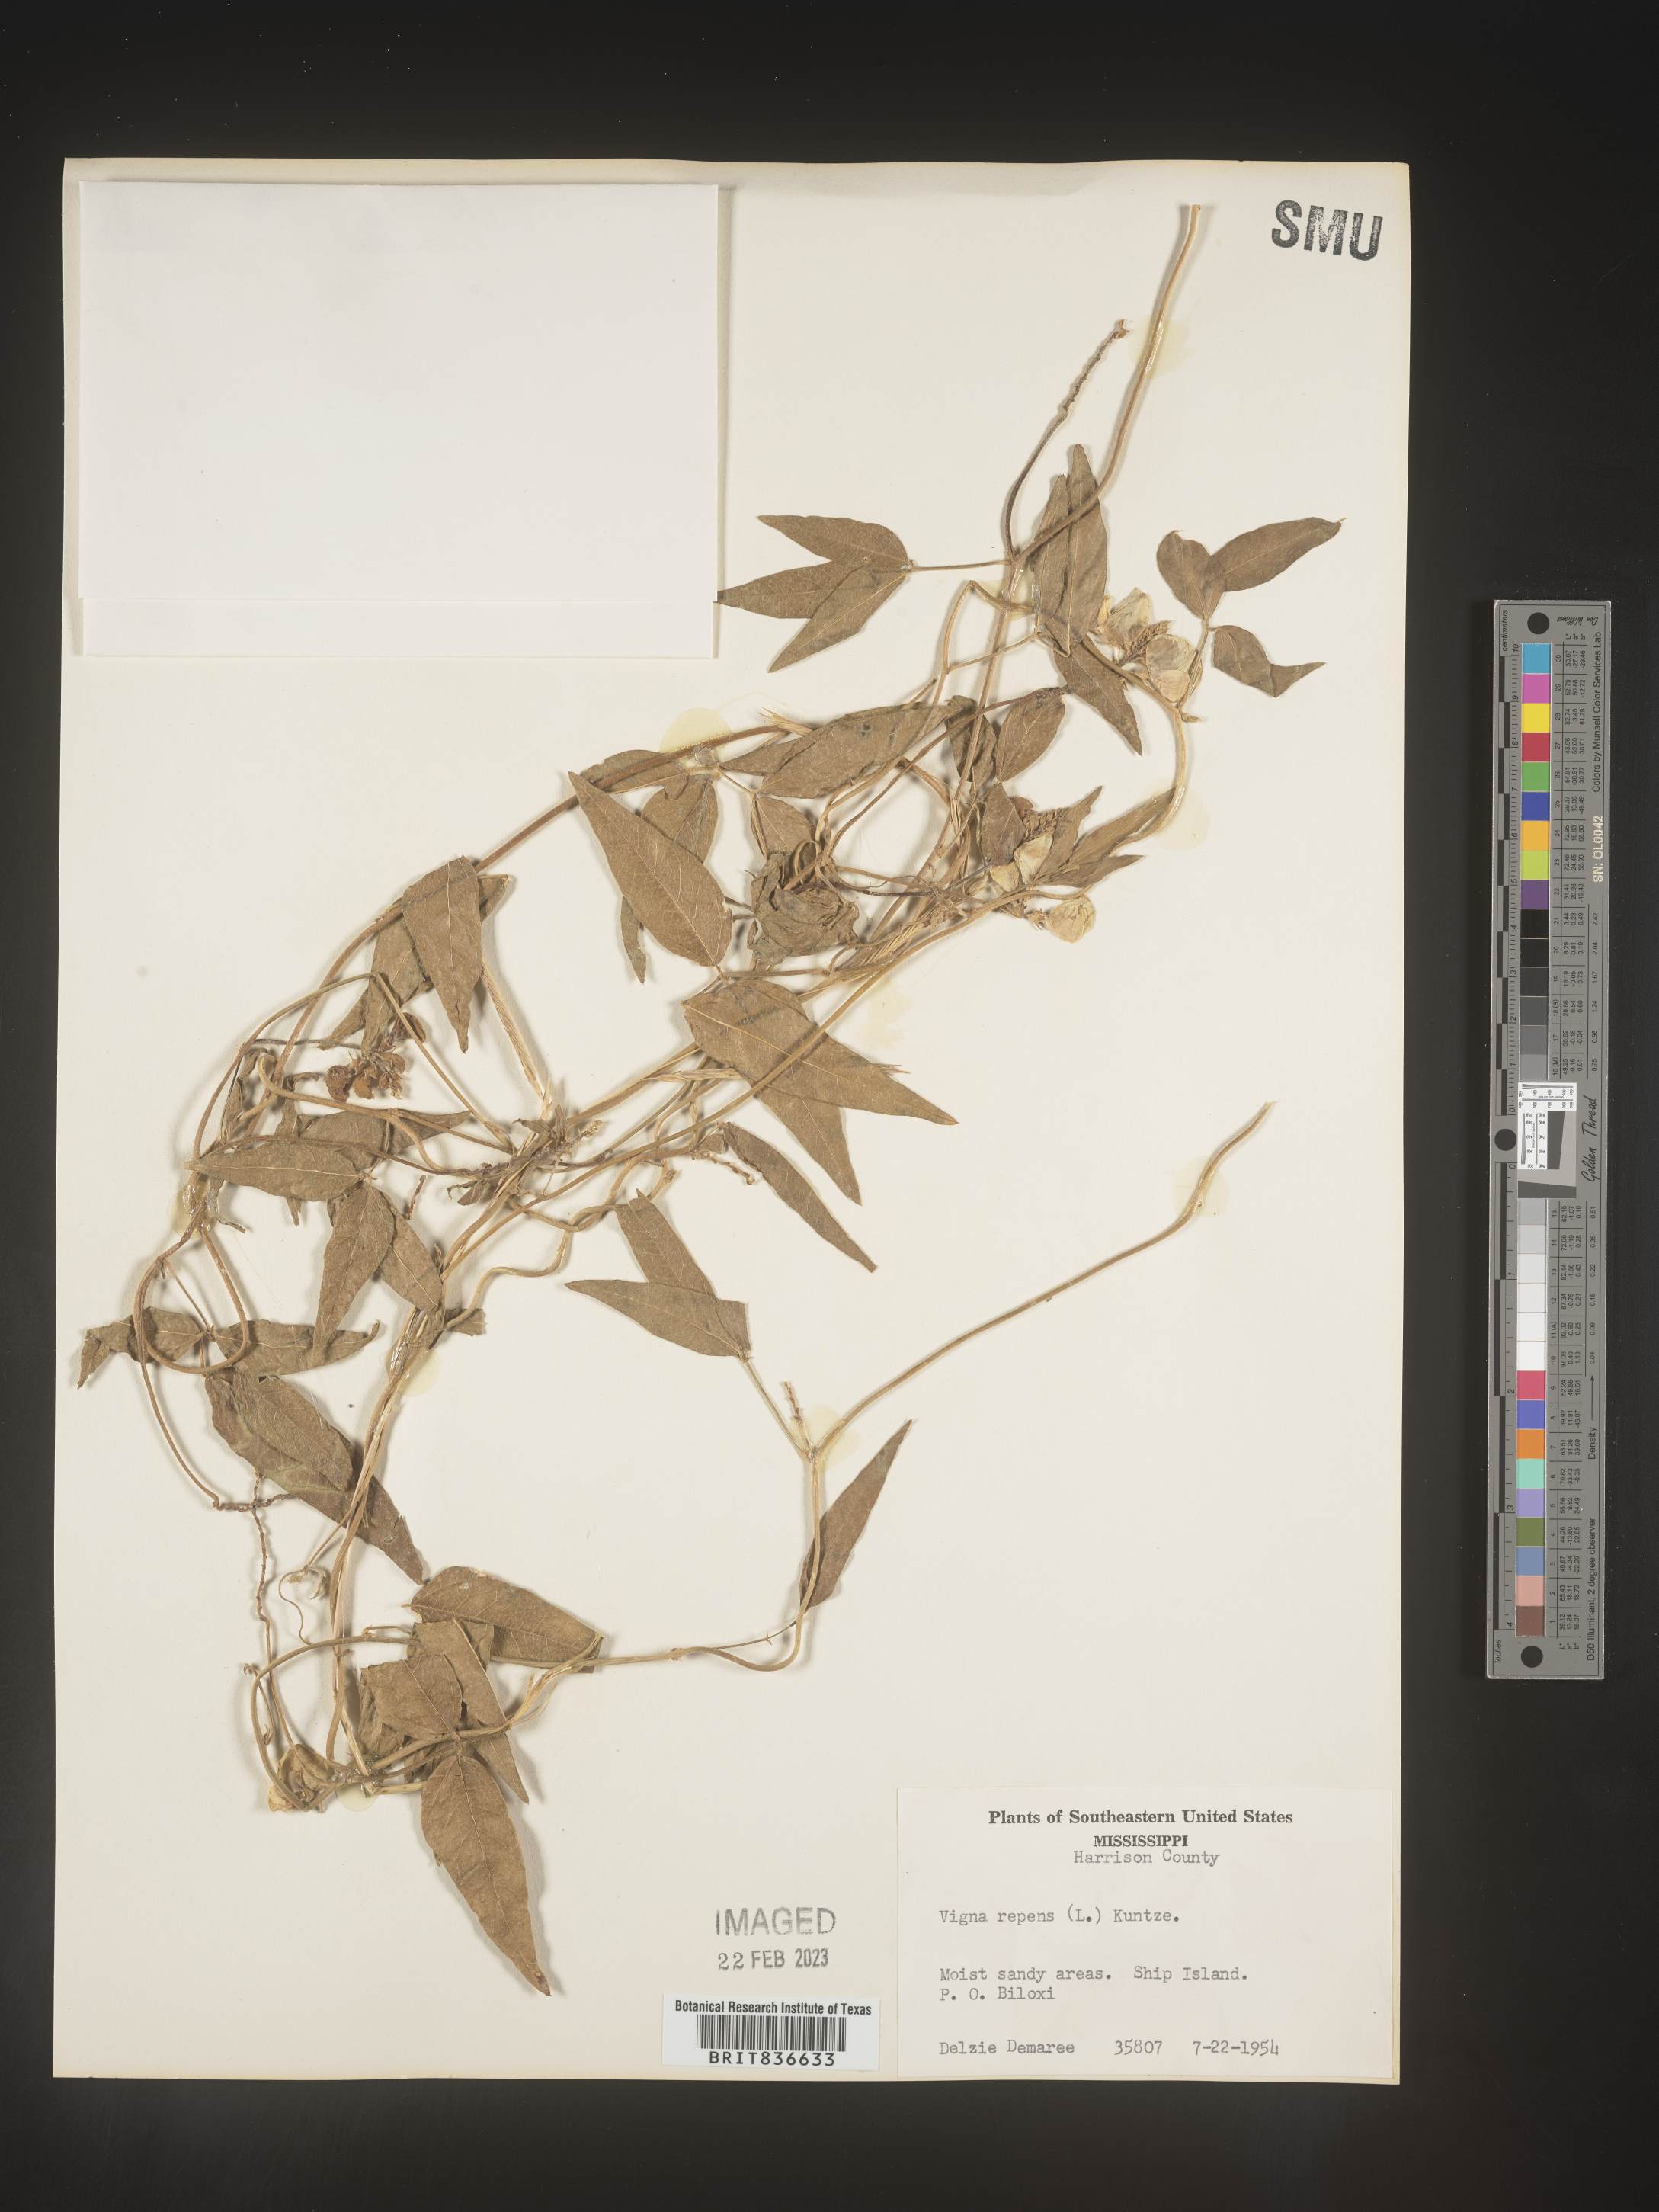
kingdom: Plantae
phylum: Tracheophyta
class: Magnoliopsida
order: Fabales
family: Fabaceae
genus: Vigna
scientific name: Vigna
